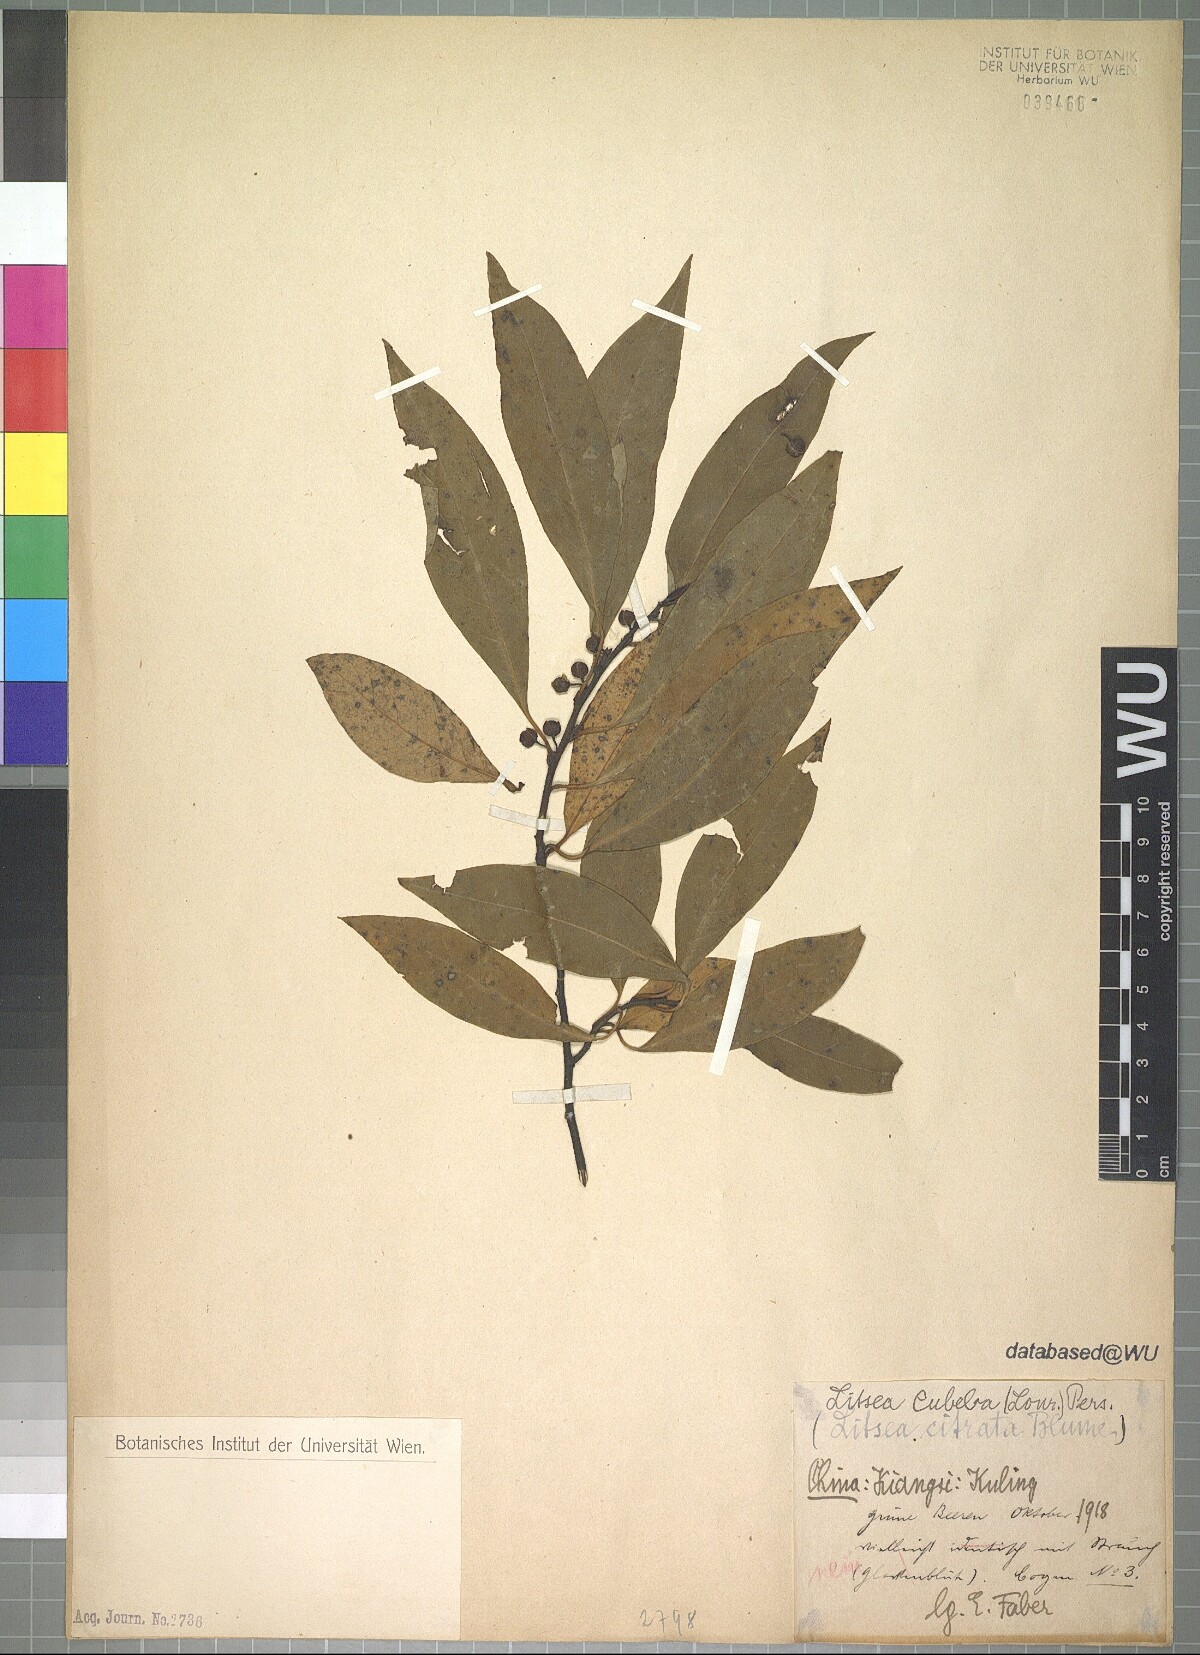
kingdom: Plantae
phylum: Tracheophyta
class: Magnoliopsida
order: Laurales
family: Lauraceae
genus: Litsea
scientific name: Litsea cubeba
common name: Mountain-pepper
